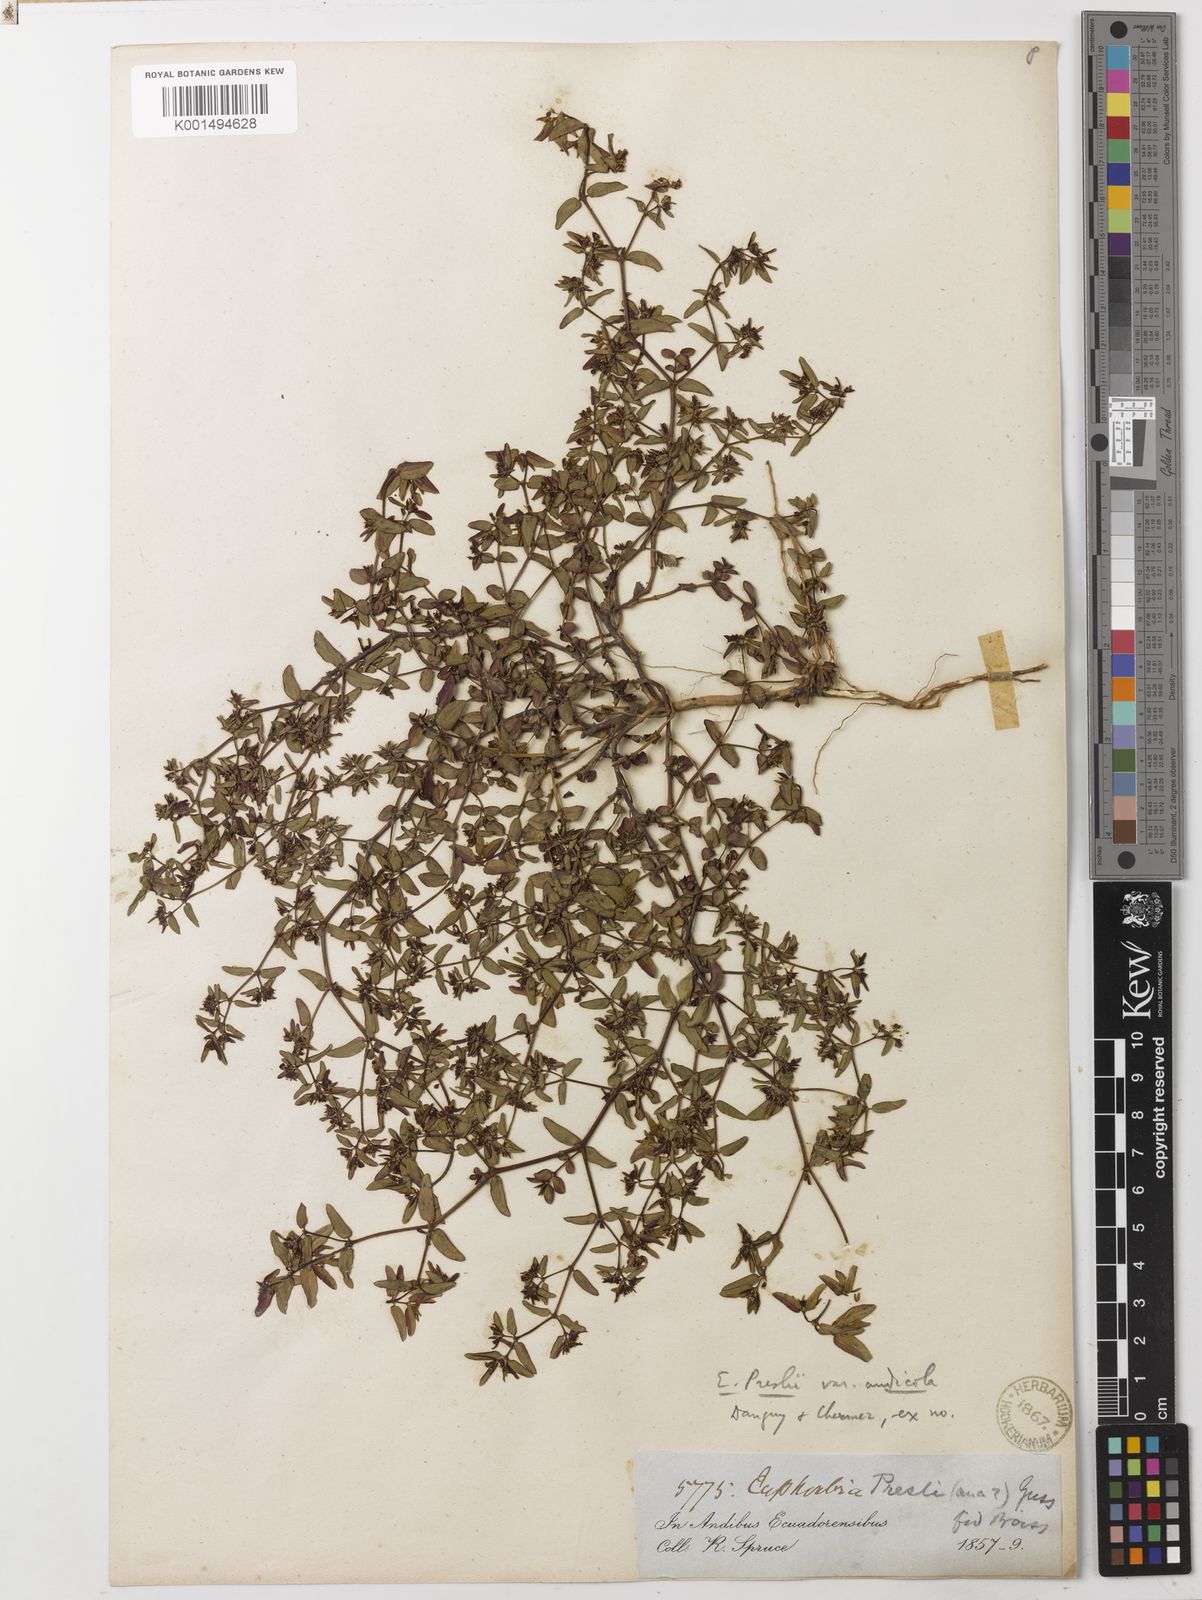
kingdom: Plantae
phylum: Tracheophyta
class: Magnoliopsida
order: Malpighiales
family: Euphorbiaceae
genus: Euphorbia
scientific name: Euphorbia nutans
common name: Eyebane
